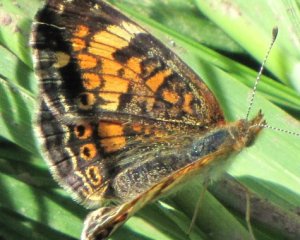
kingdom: Animalia
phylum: Arthropoda
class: Insecta
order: Lepidoptera
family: Nymphalidae
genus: Phyciodes
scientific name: Phyciodes tharos
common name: Northern Crescent
